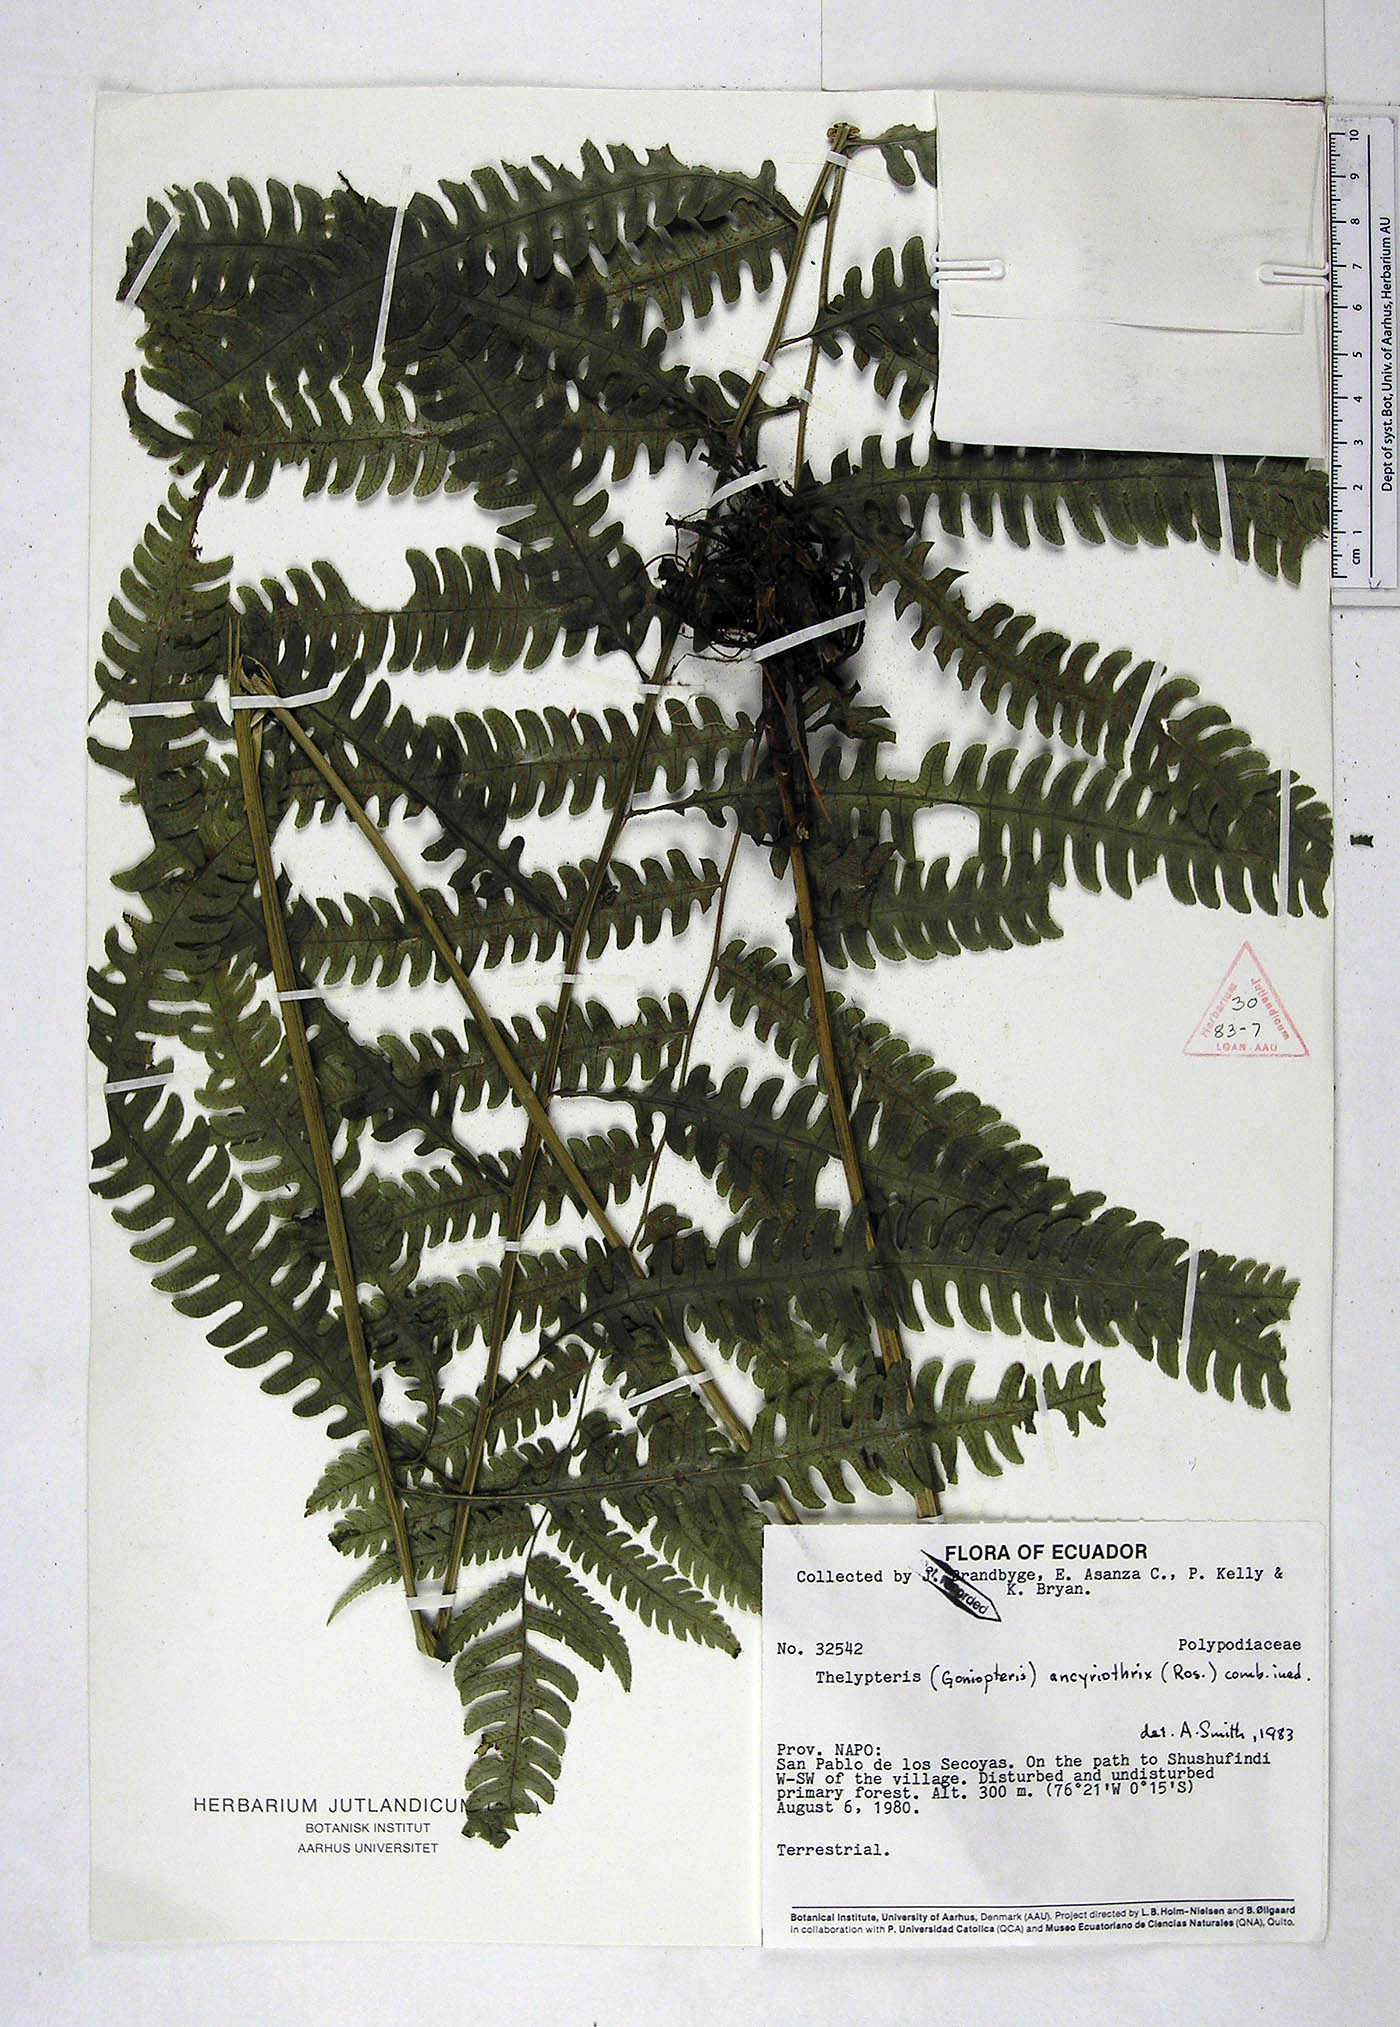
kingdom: Plantae
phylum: Tracheophyta
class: Polypodiopsida
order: Polypodiales
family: Thelypteridaceae
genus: Goniopteris
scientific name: Goniopteris ancyriothrix
